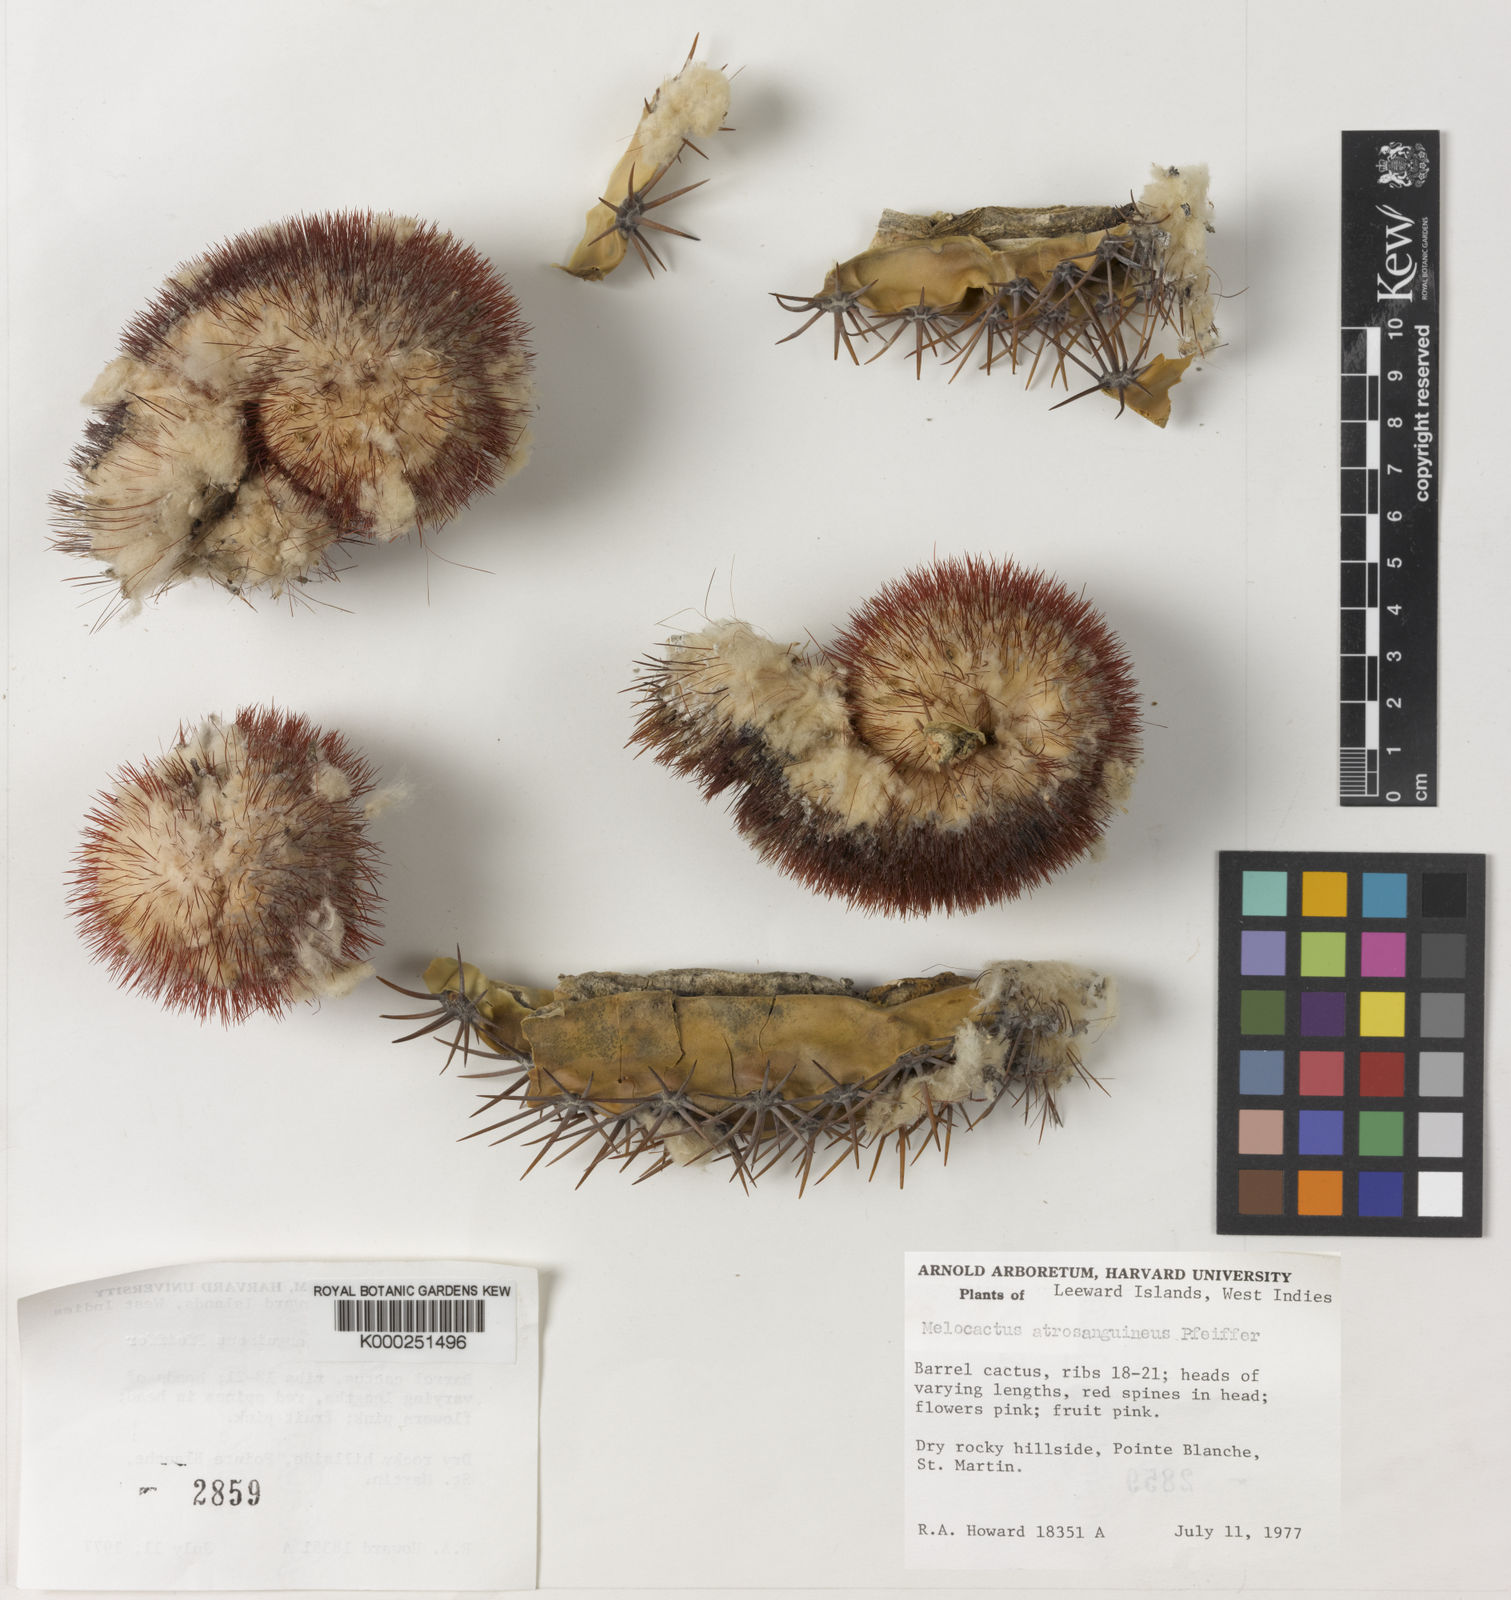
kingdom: Plantae
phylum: Tracheophyta
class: Magnoliopsida
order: Caryophyllales
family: Cactaceae
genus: Melocactus
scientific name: Melocactus intortus
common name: Barrel cactus
